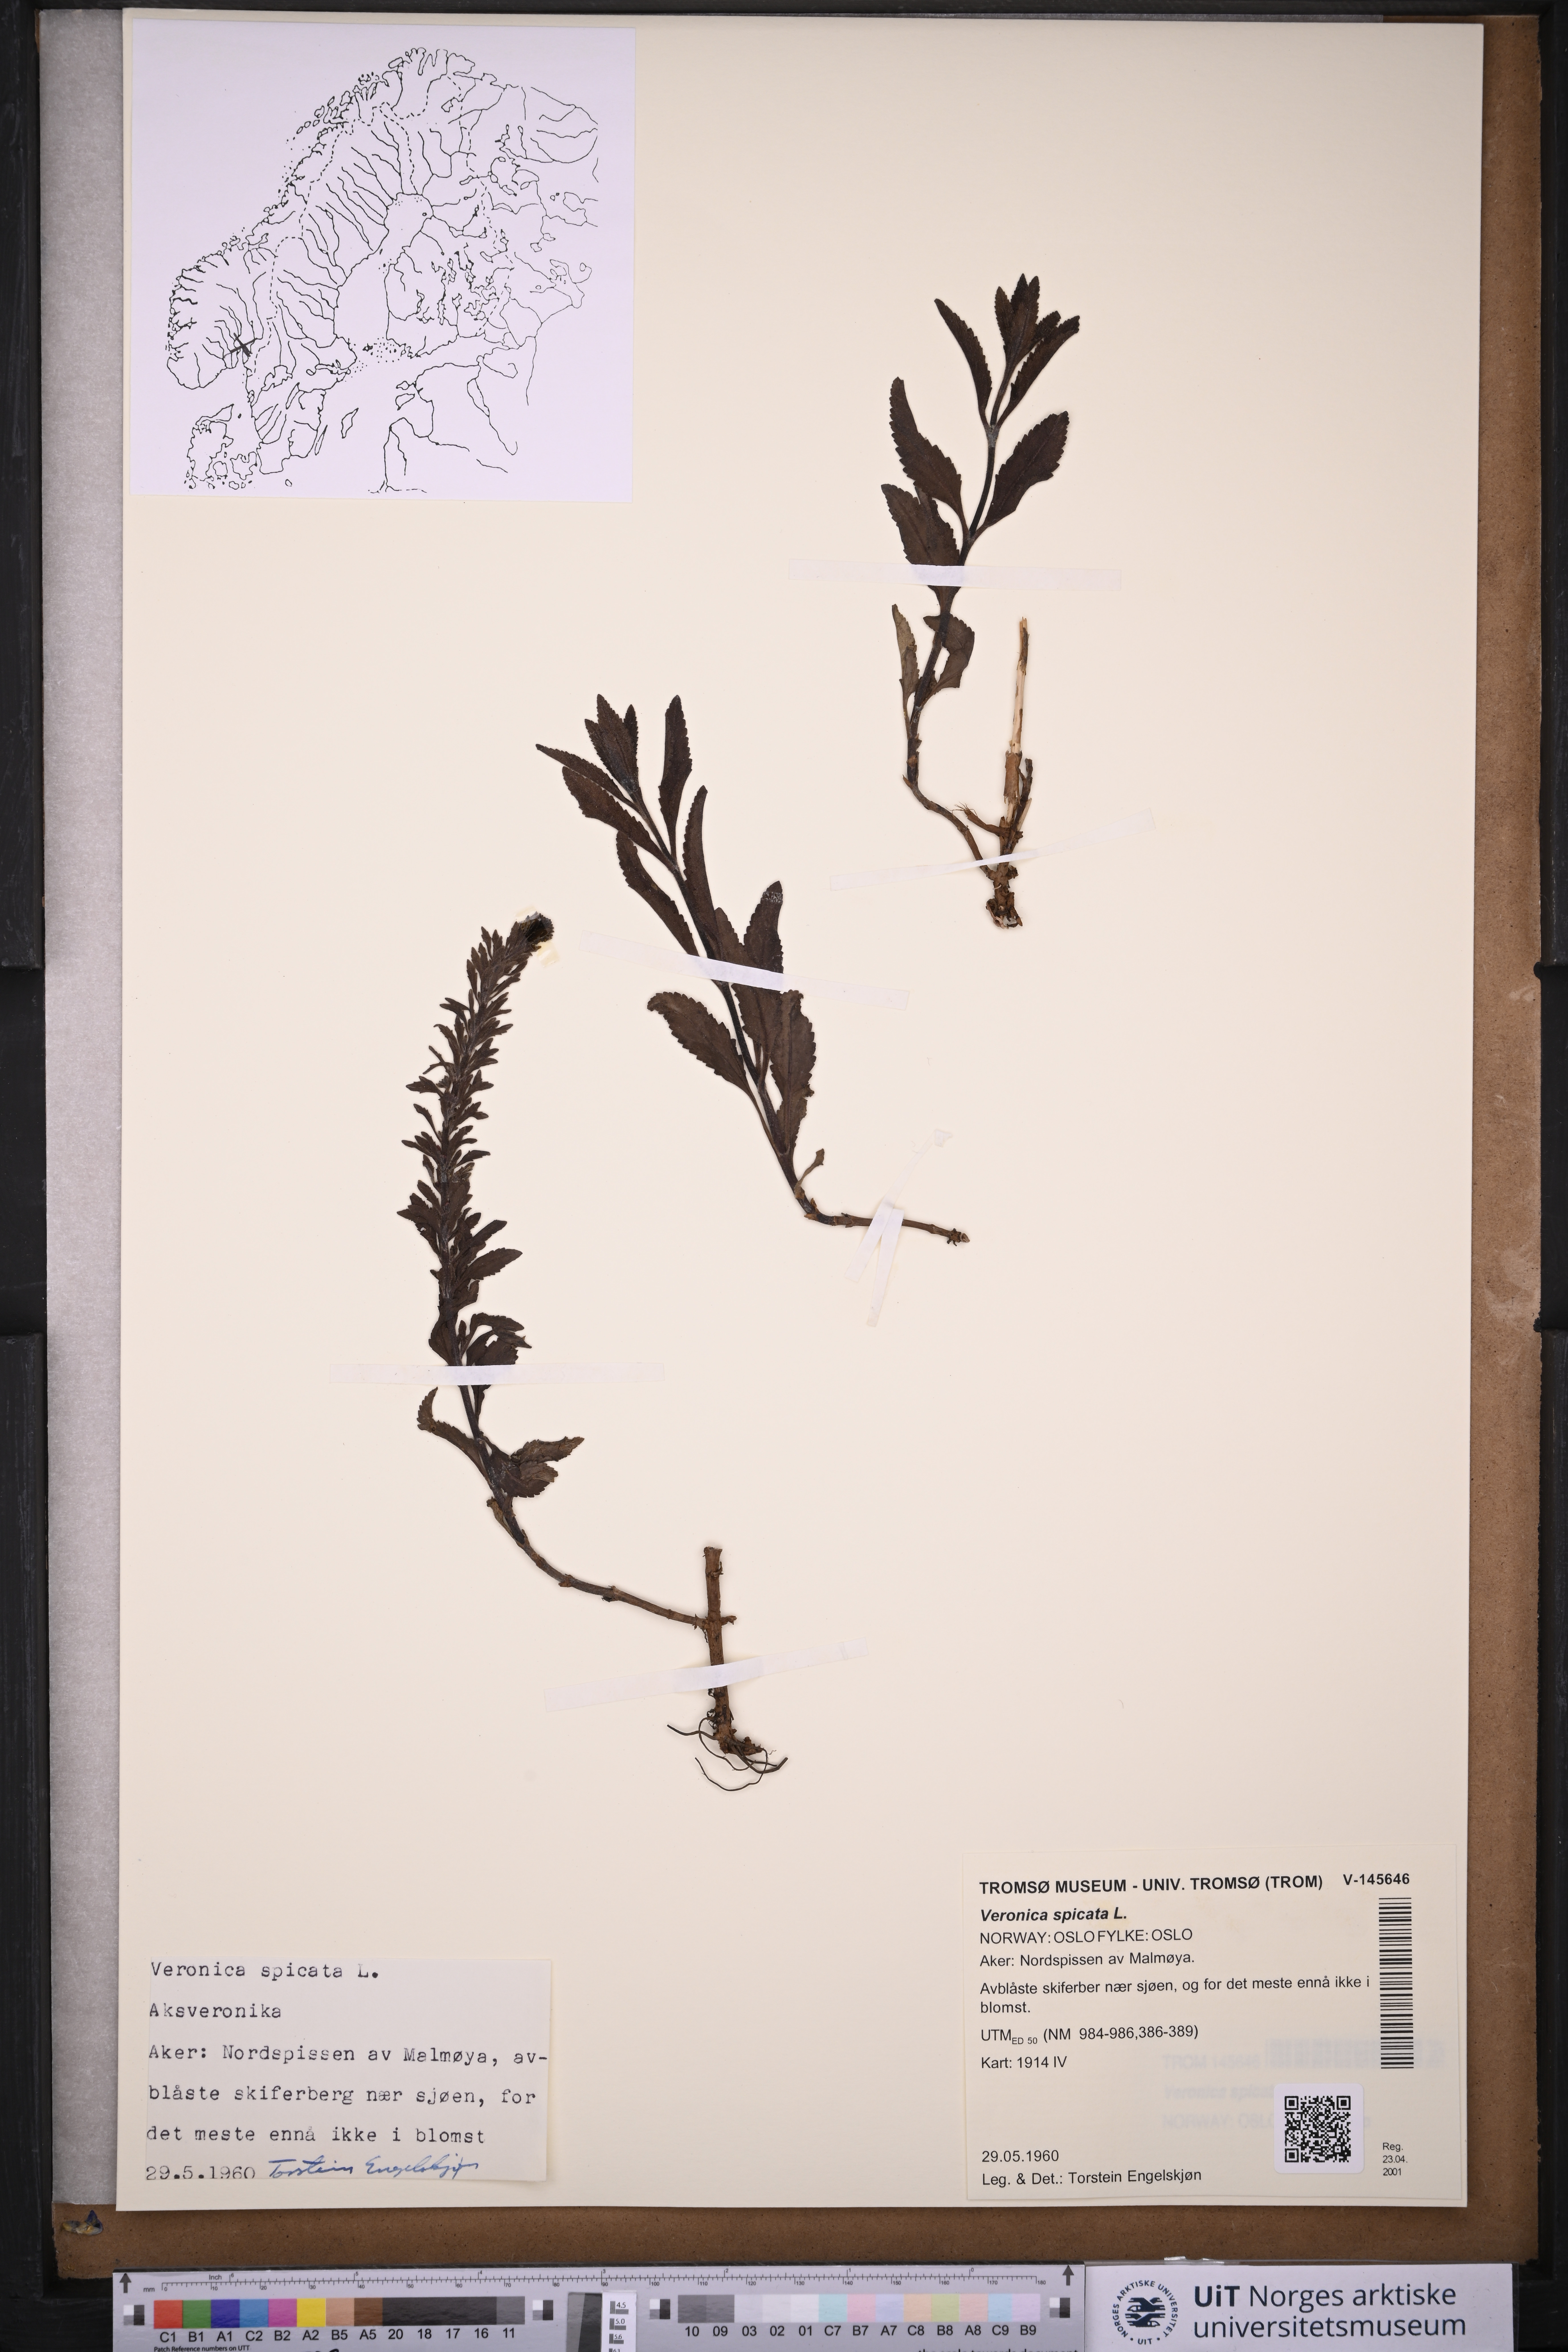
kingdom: Plantae
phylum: Tracheophyta
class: Magnoliopsida
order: Lamiales
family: Plantaginaceae
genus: Veronica
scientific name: Veronica spicata
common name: Spiked speedwell
